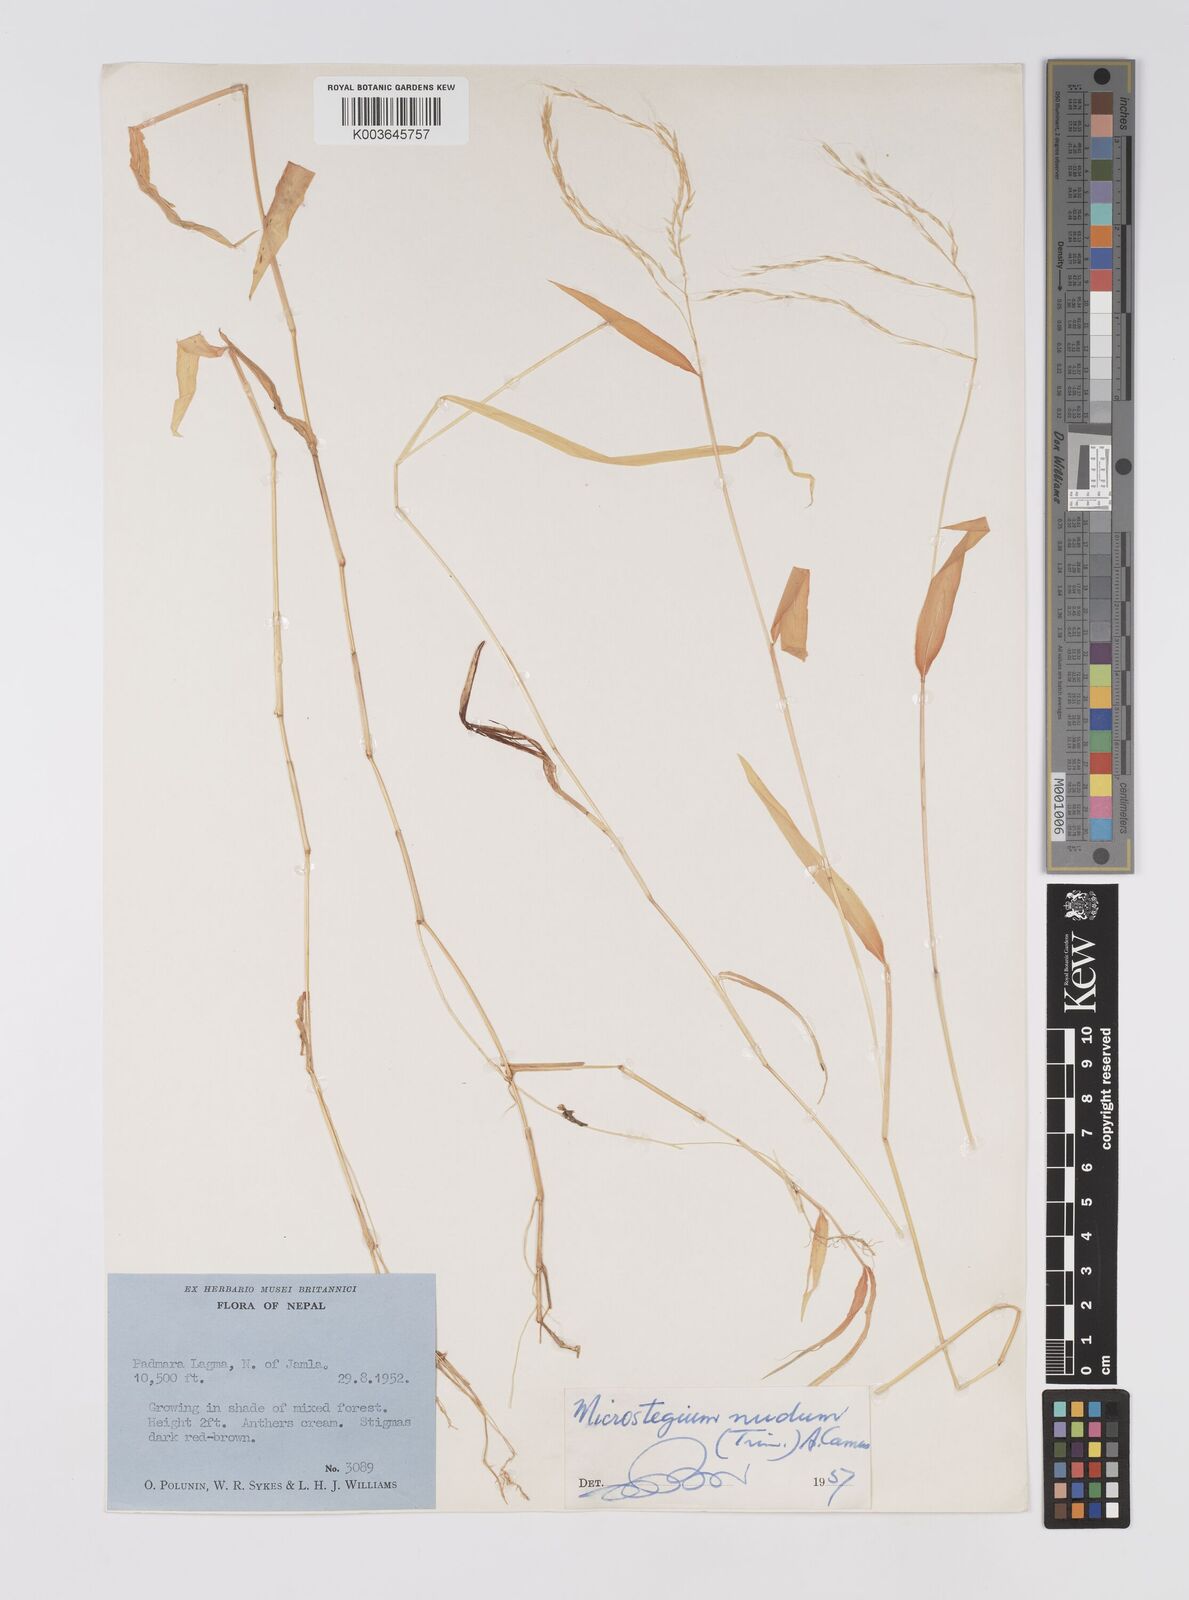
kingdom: Plantae
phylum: Tracheophyta
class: Liliopsida
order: Poales
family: Poaceae
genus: Microstegium
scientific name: Microstegium nudum
